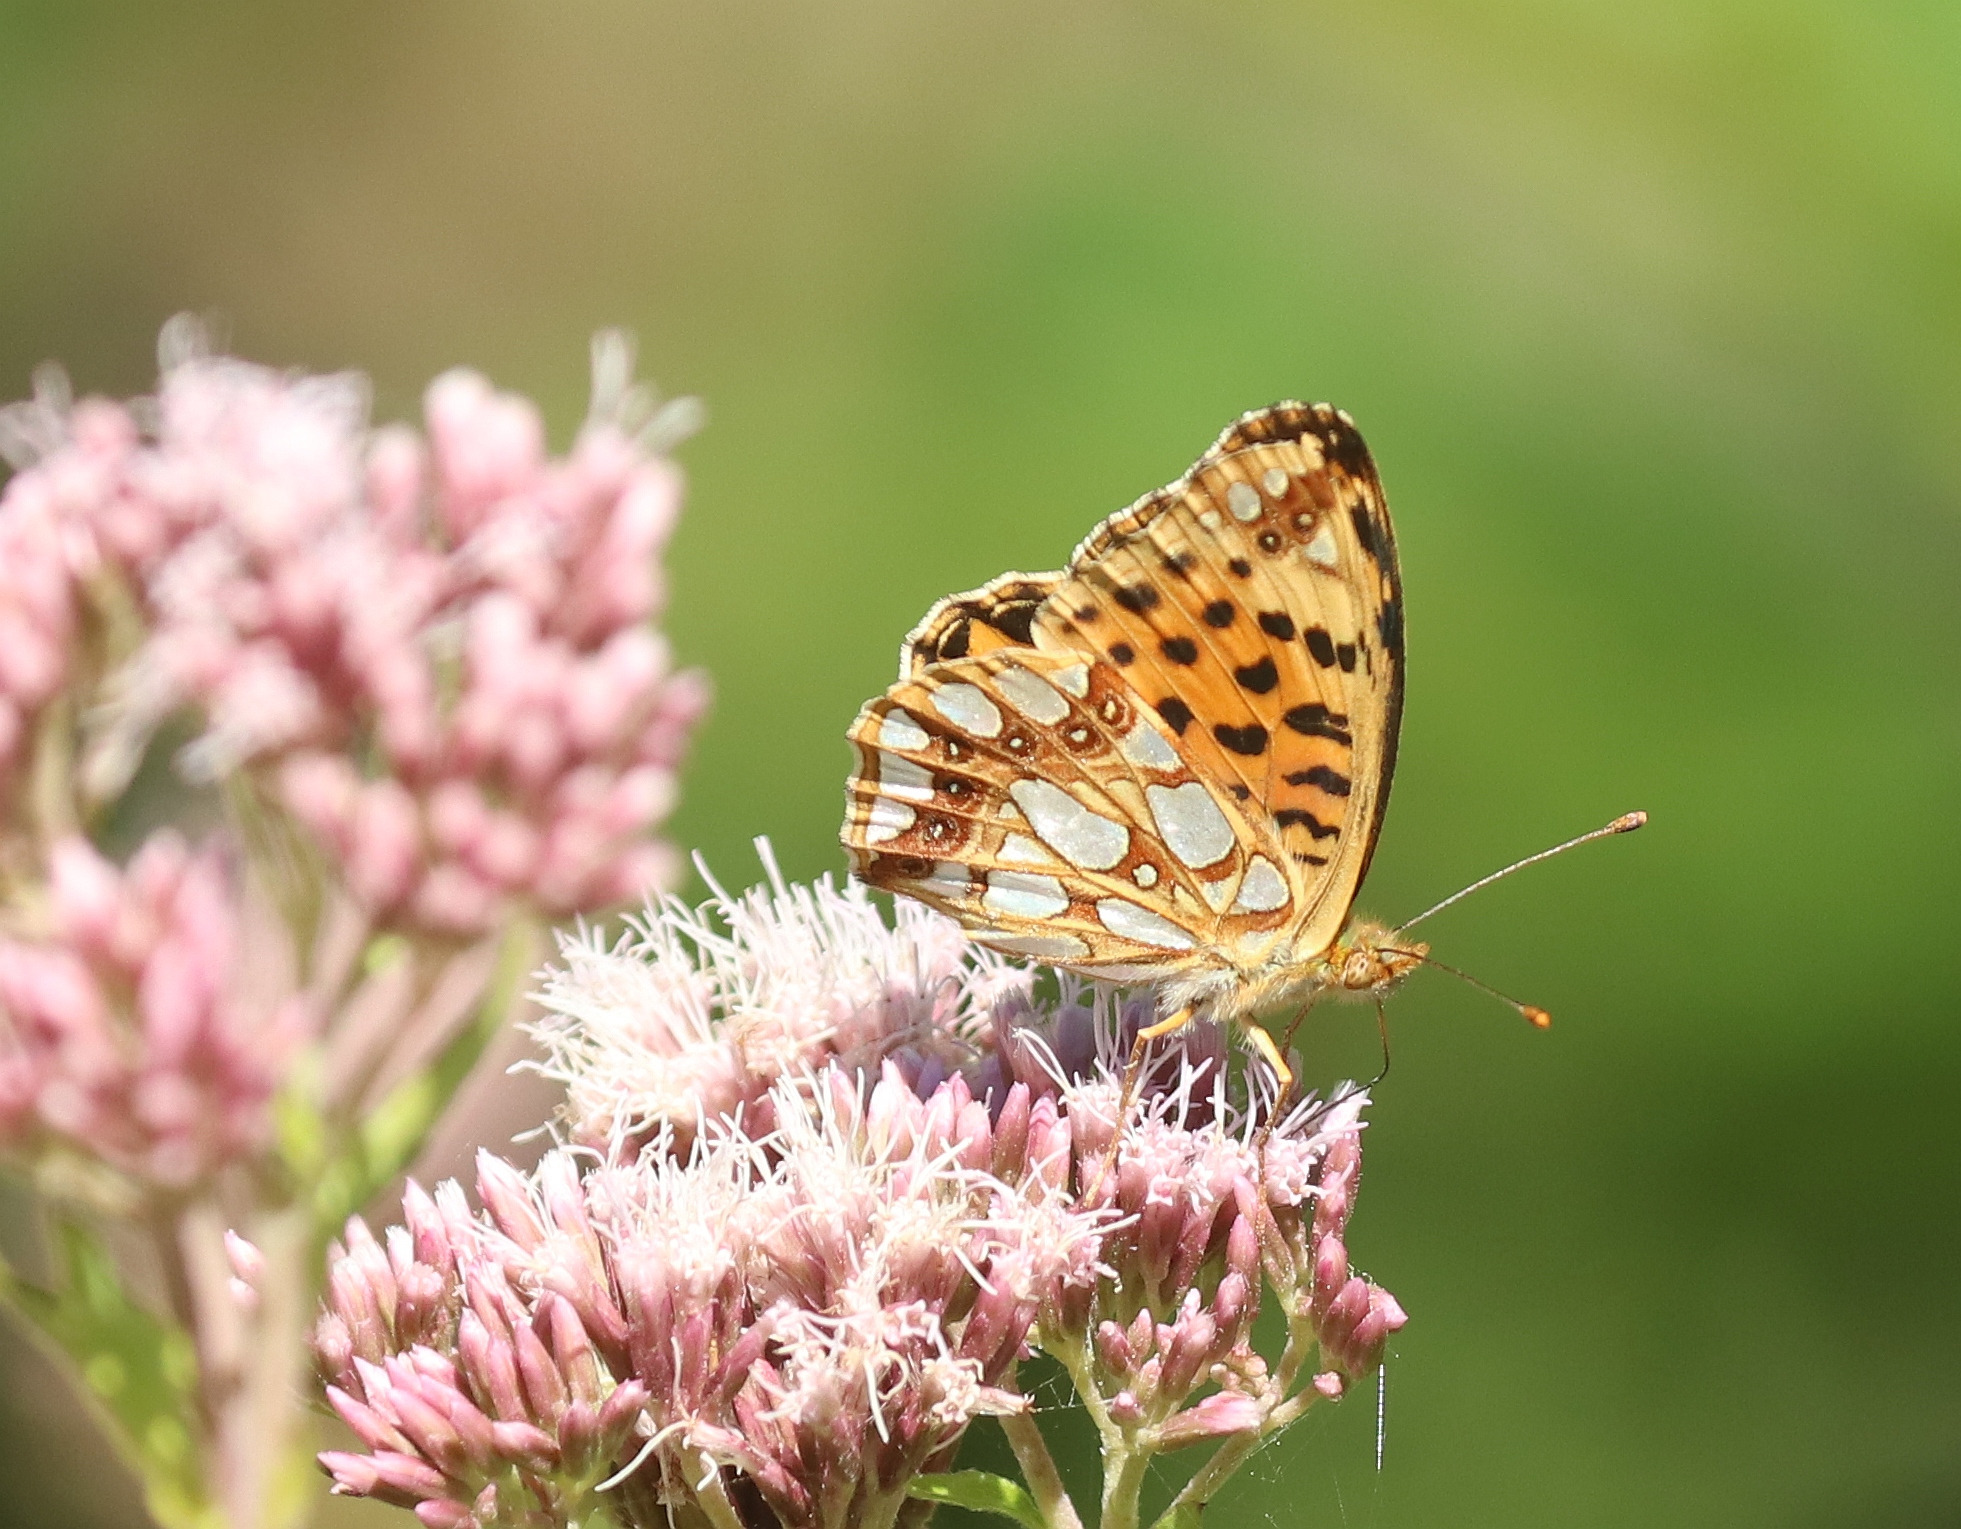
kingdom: Animalia
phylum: Arthropoda
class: Insecta
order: Lepidoptera
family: Nymphalidae
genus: Issoria
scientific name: Issoria lathonia
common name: Storplettet perlemorsommerfugl
